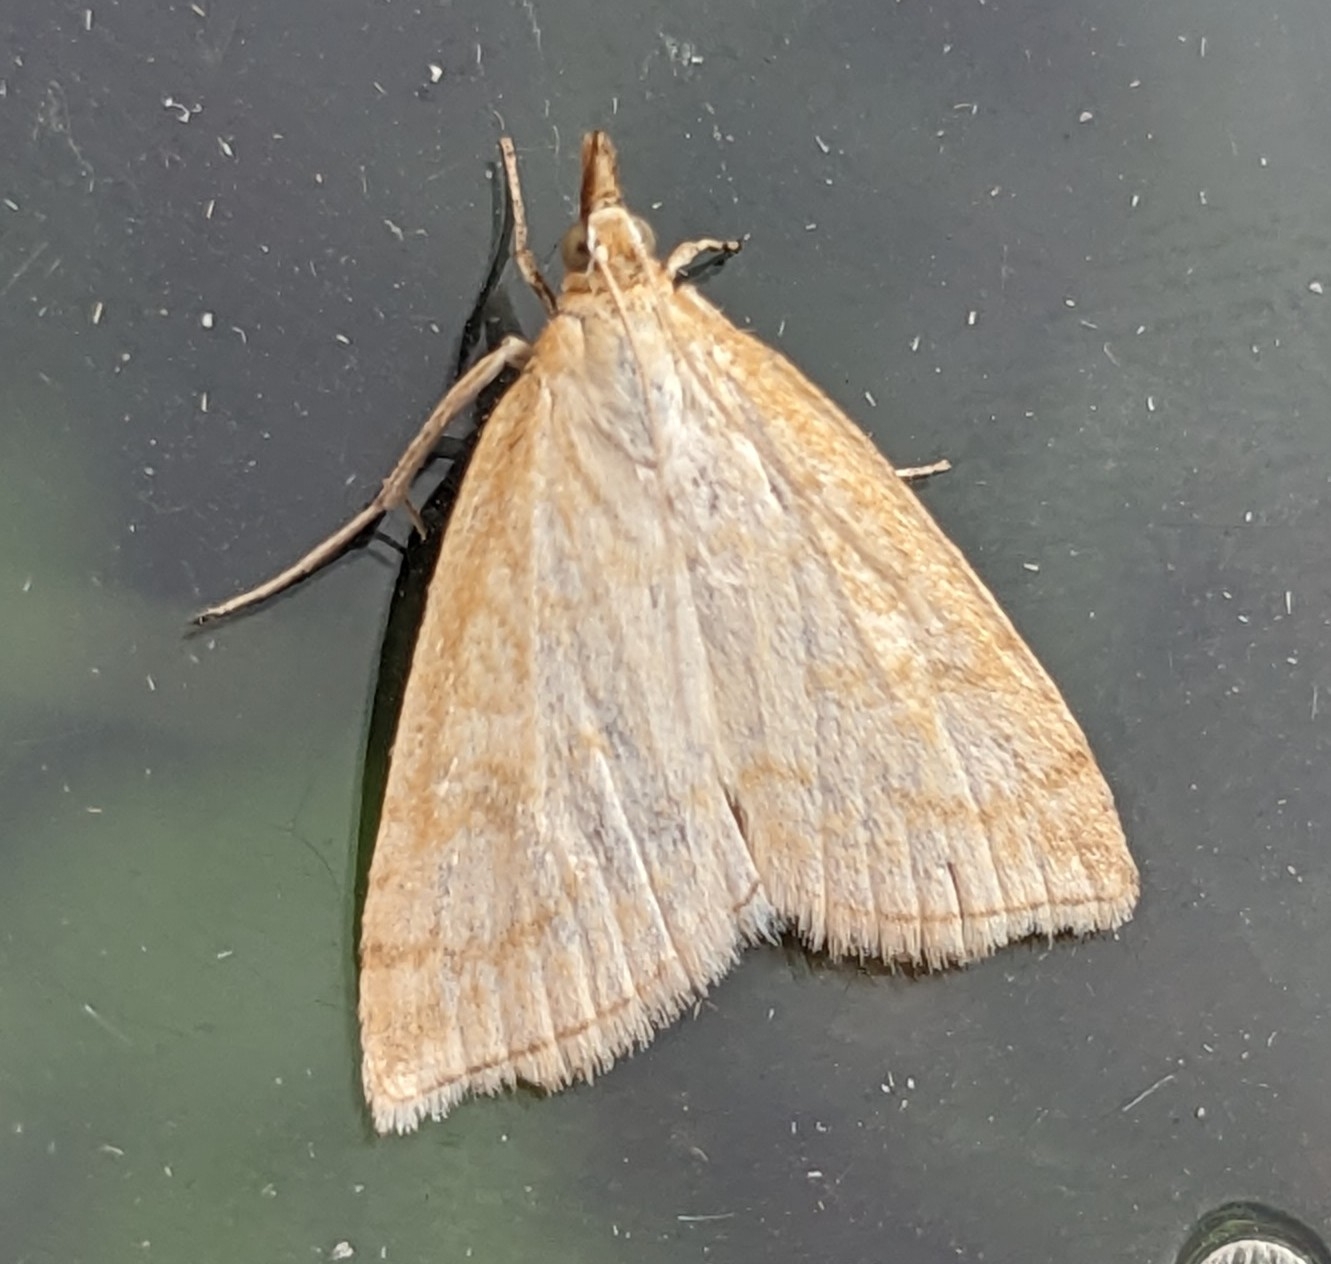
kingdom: Animalia
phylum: Arthropoda
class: Insecta
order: Lepidoptera
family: Crambidae
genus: Udea
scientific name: Udea lutealis
